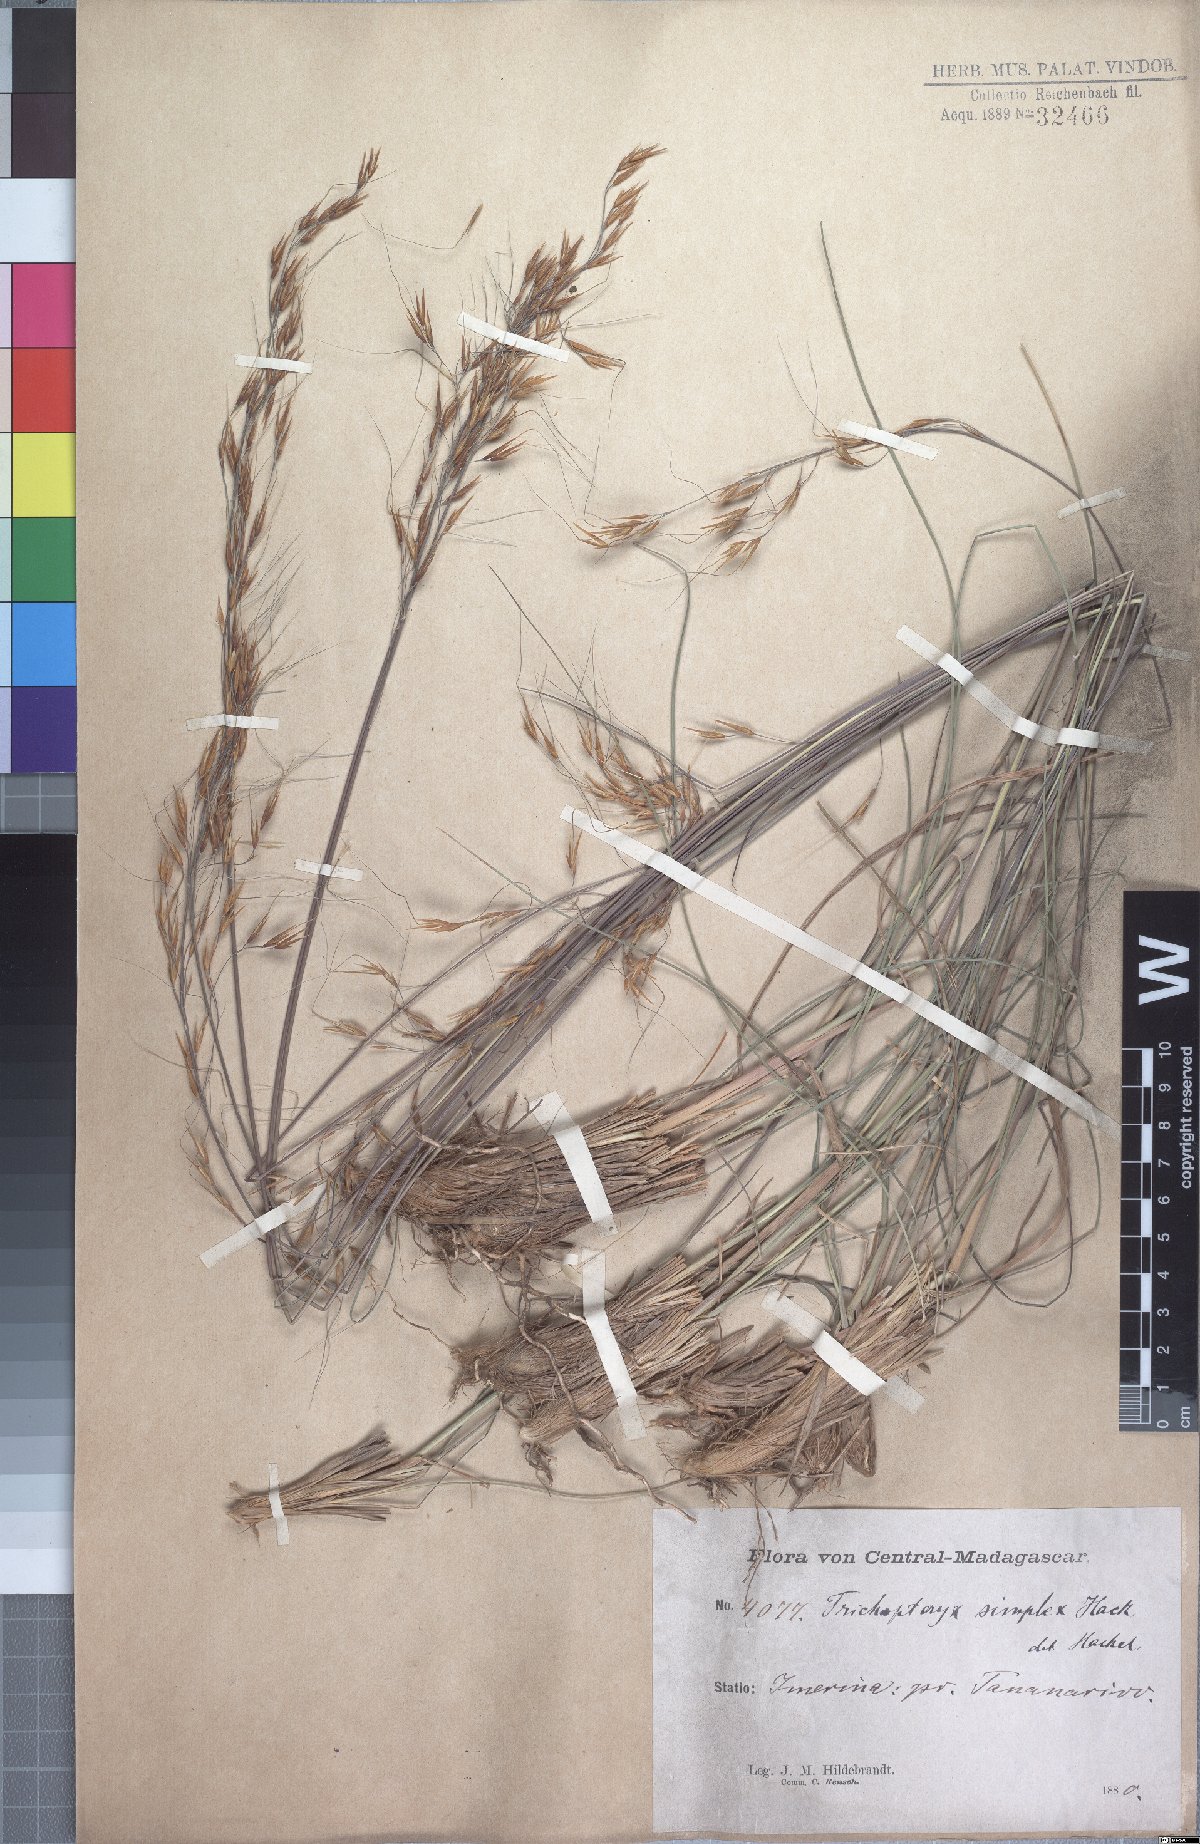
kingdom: Plantae
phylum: Tracheophyta
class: Liliopsida
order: Poales
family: Poaceae
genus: Loudetia
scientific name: Loudetia simplex
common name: Common russet grass
